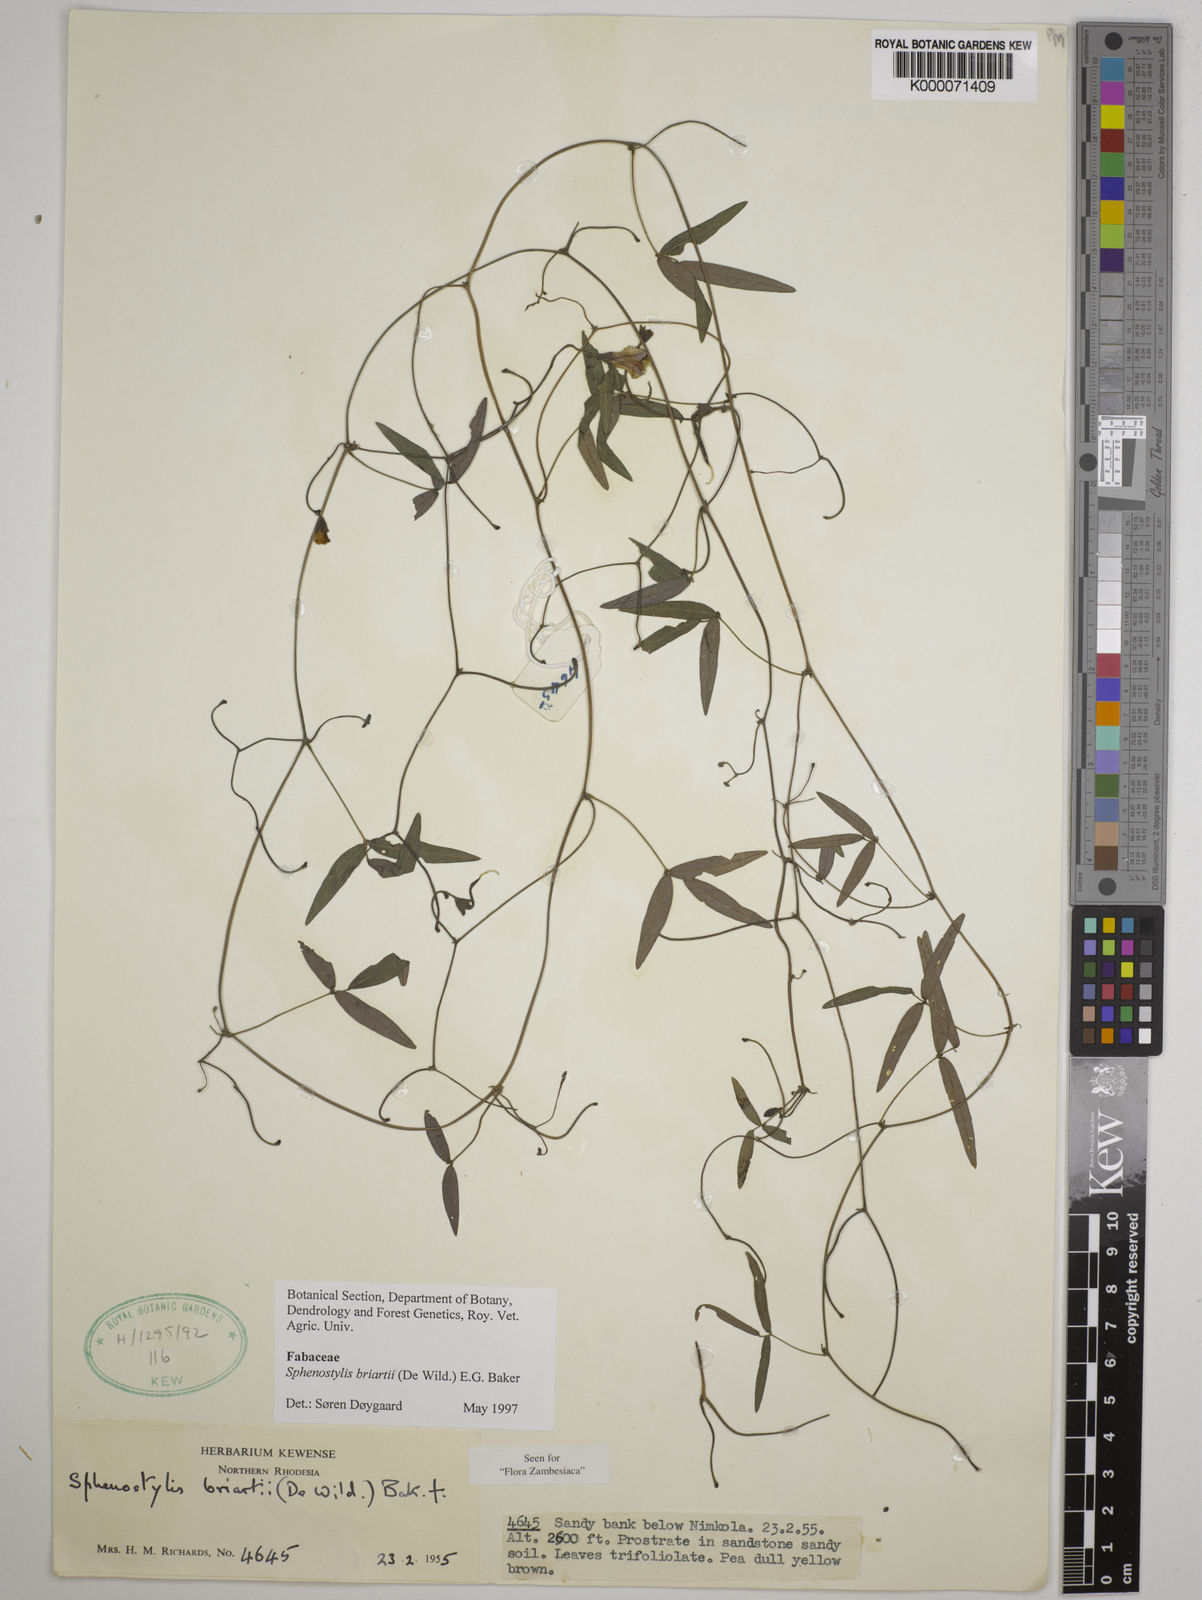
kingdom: Plantae
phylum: Tracheophyta
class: Magnoliopsida
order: Fabales
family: Fabaceae
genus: Sphenostylis
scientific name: Sphenostylis briartii
